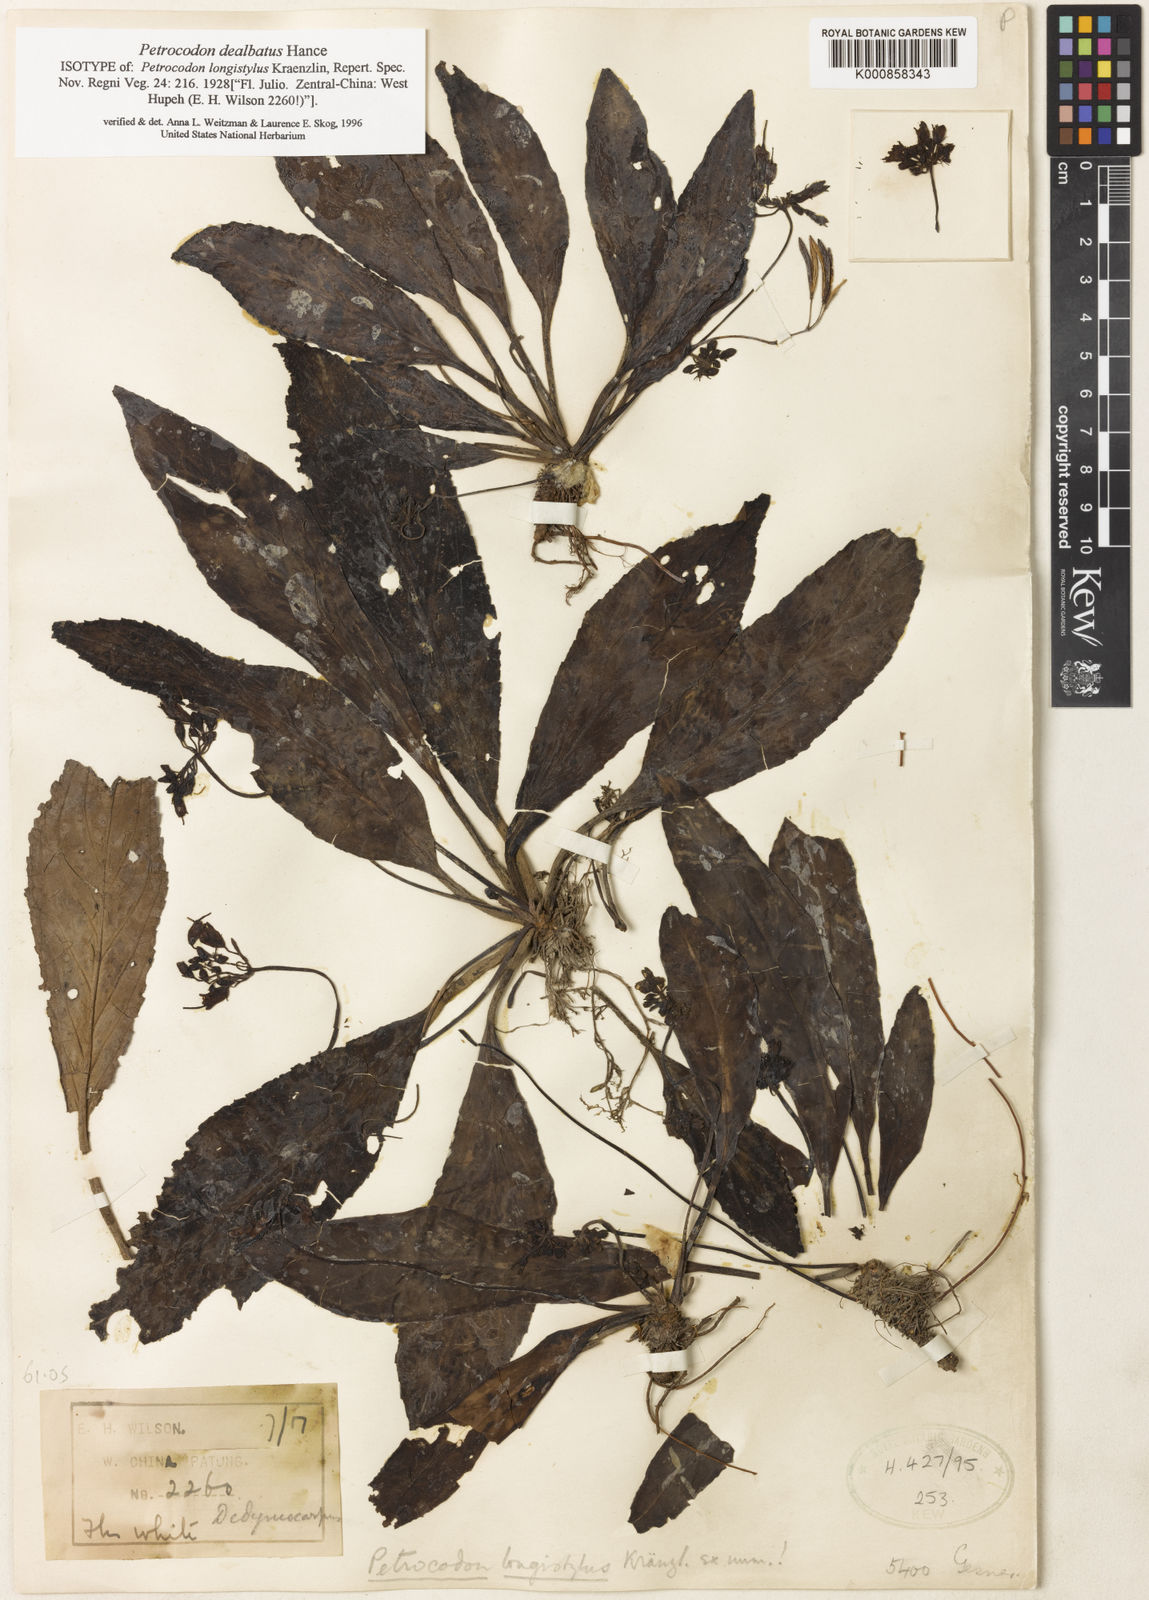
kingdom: Plantae
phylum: Tracheophyta
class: Magnoliopsida
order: Lamiales
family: Gesneriaceae
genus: Petrocodon
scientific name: Petrocodon dealbatus
